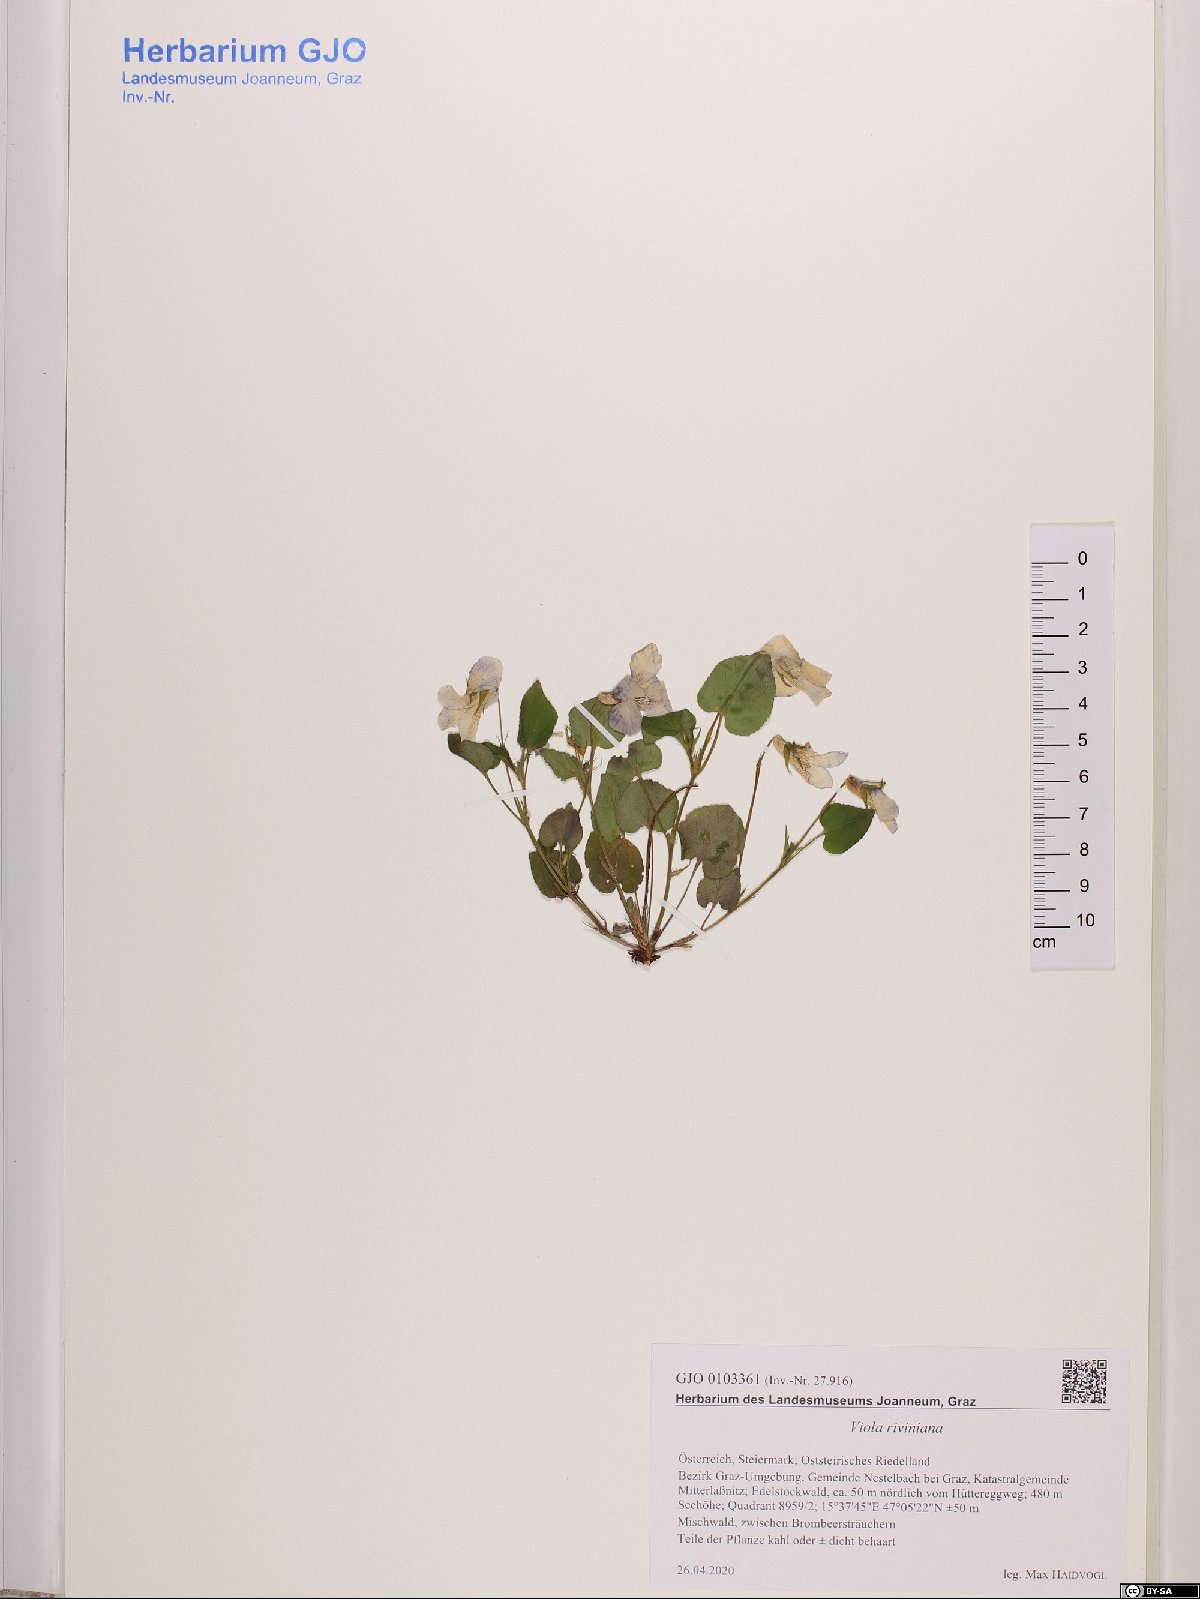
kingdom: Plantae
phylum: Tracheophyta
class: Magnoliopsida
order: Malpighiales
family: Violaceae
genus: Viola
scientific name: Viola riviniana
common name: Common dog-violet
